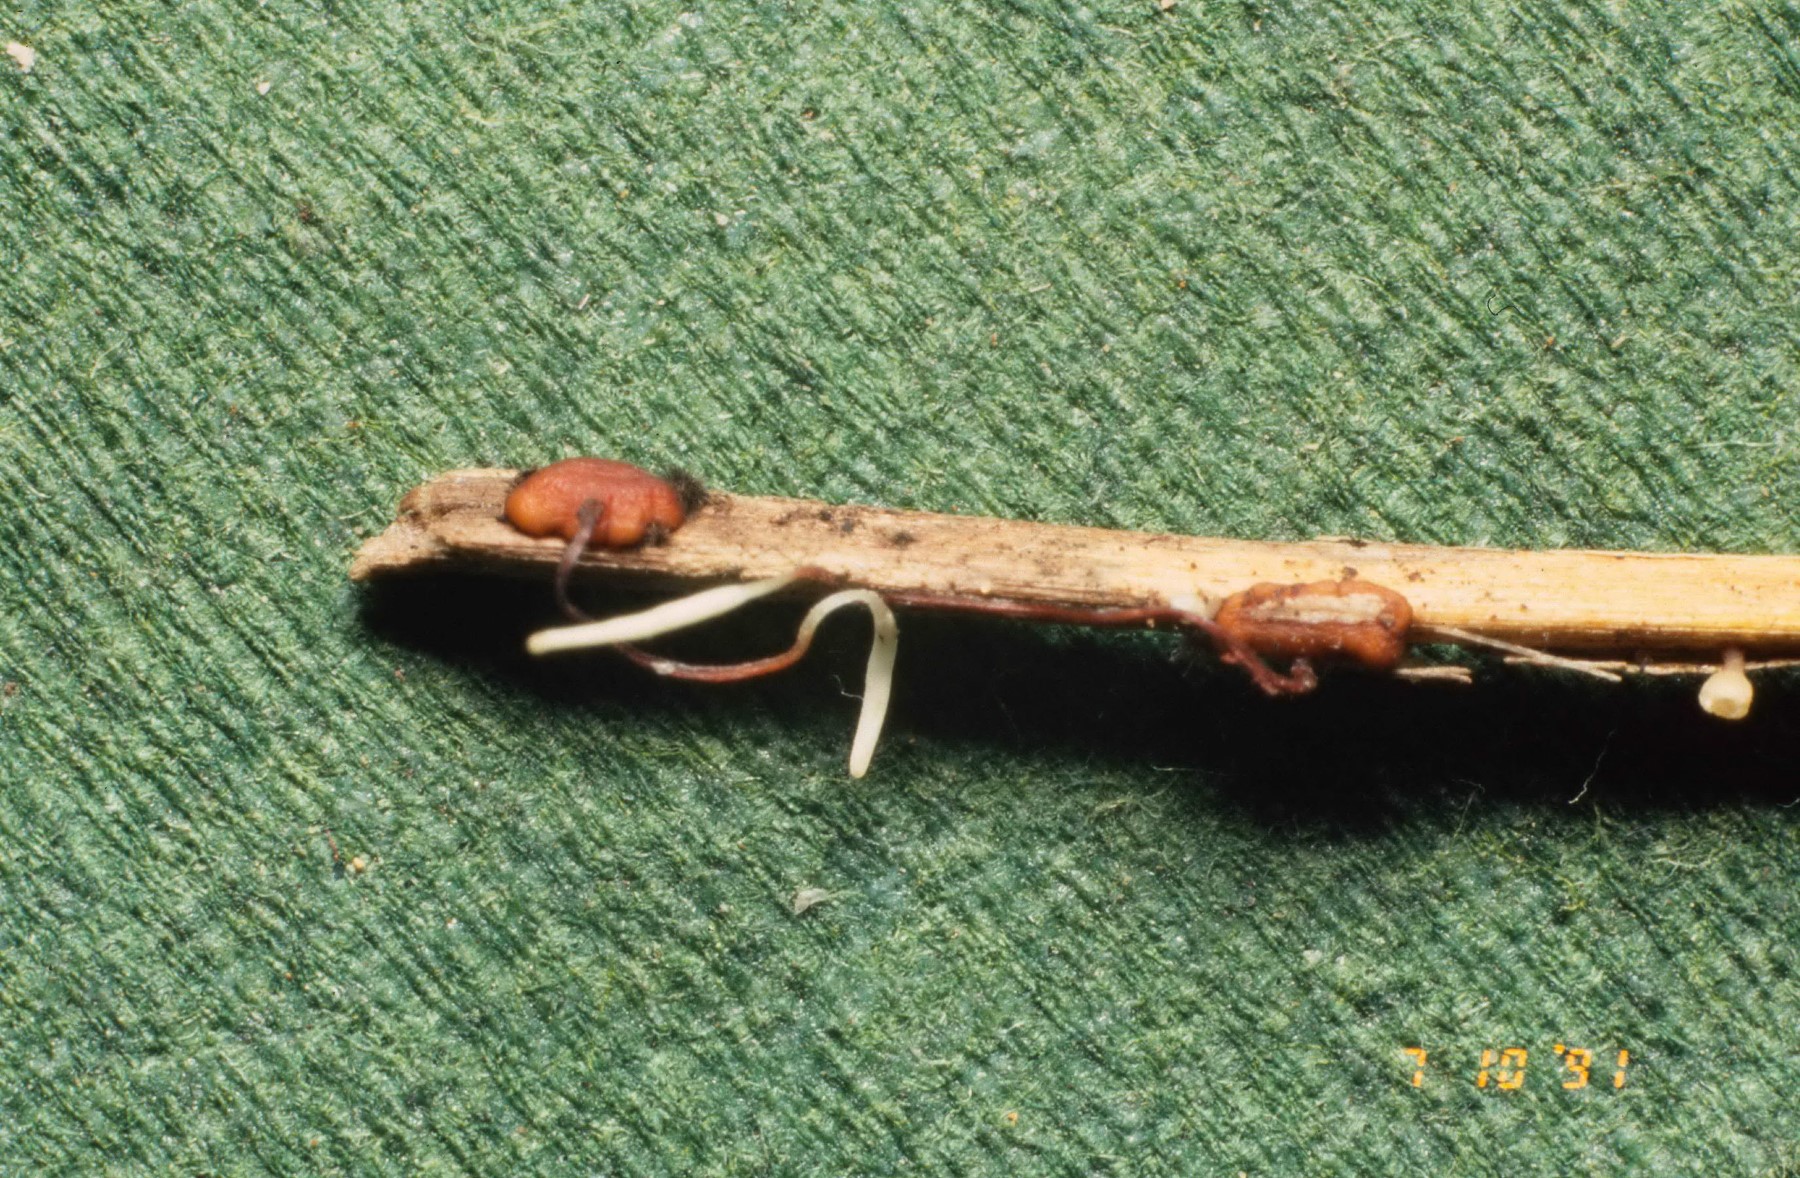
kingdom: Fungi
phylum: Basidiomycota
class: Agaricomycetes
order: Agaricales
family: Typhulaceae
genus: Typhula
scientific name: Typhula erythropus
